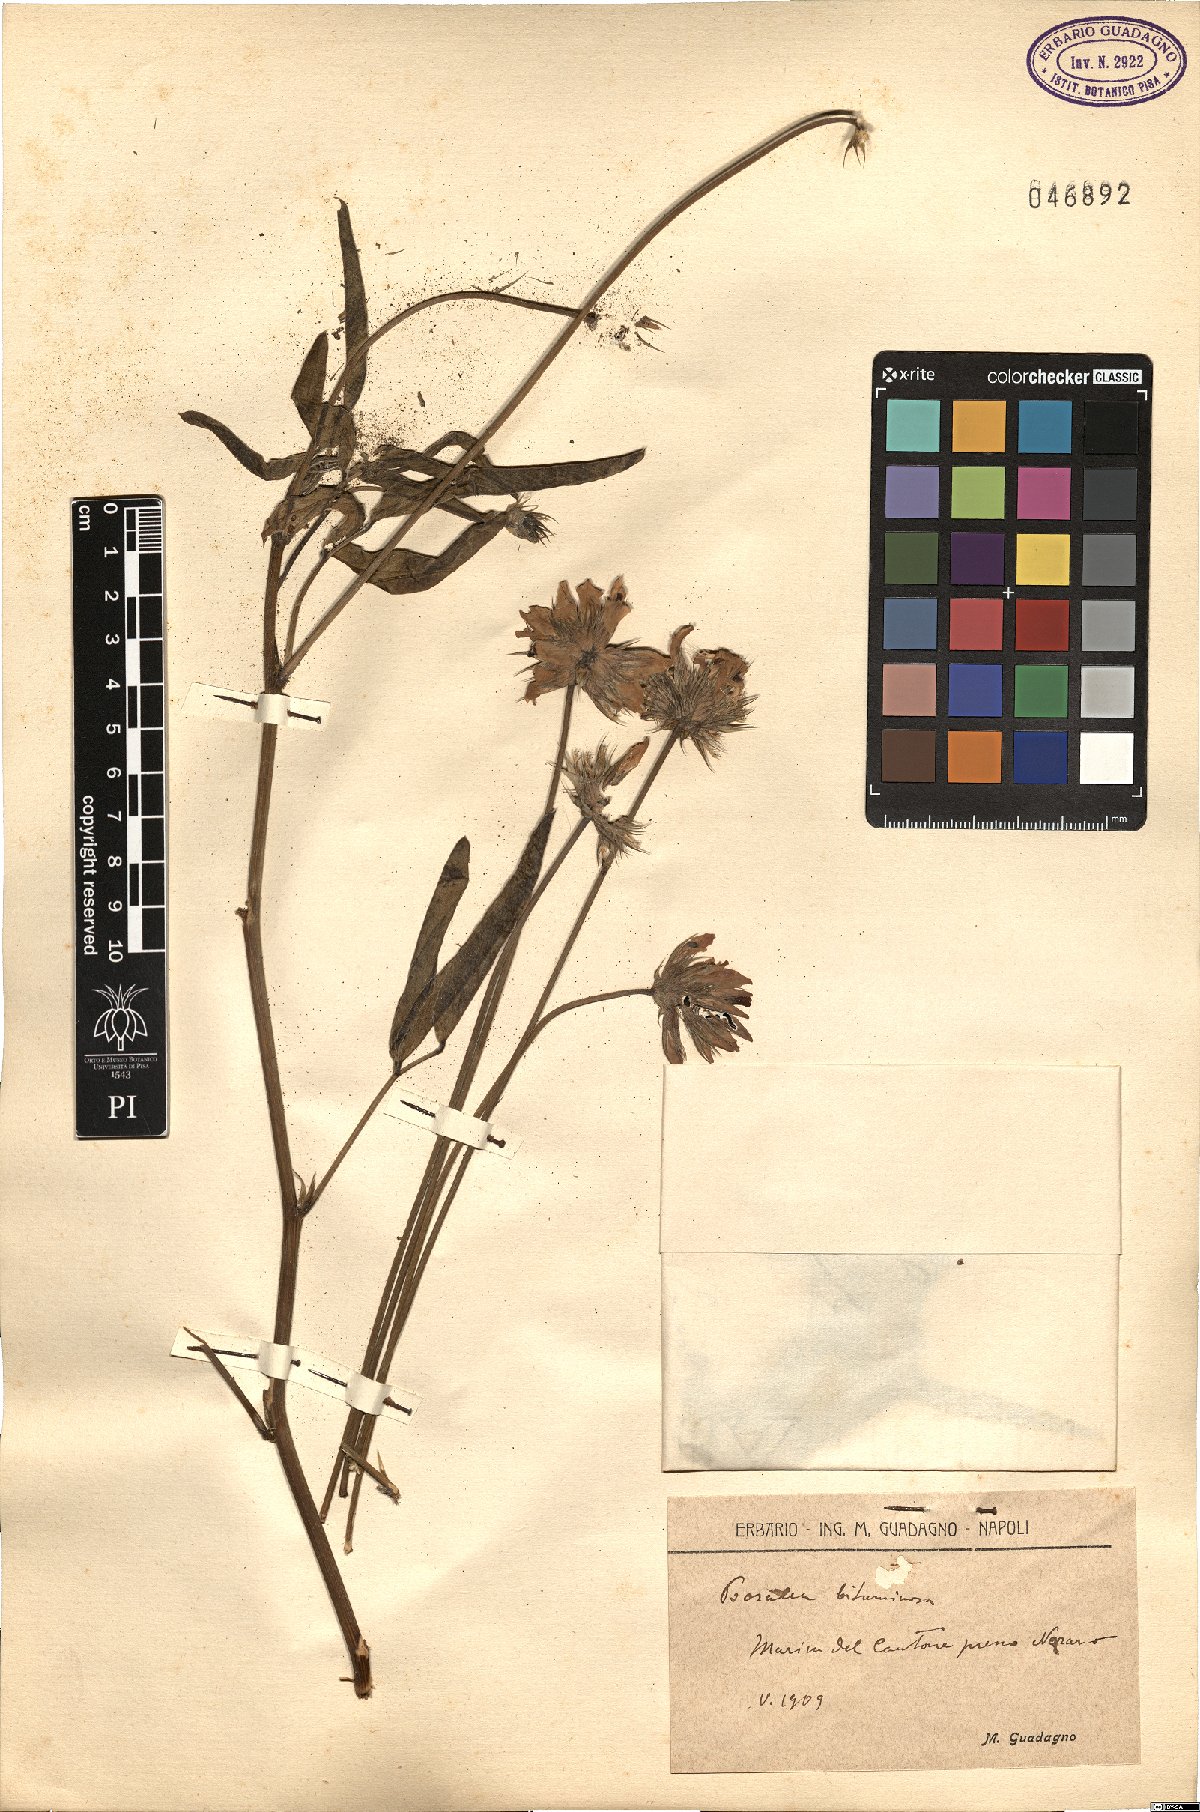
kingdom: Plantae
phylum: Tracheophyta
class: Magnoliopsida
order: Fabales
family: Fabaceae
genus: Bituminaria
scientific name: Bituminaria bituminosa
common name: Arabian pea
